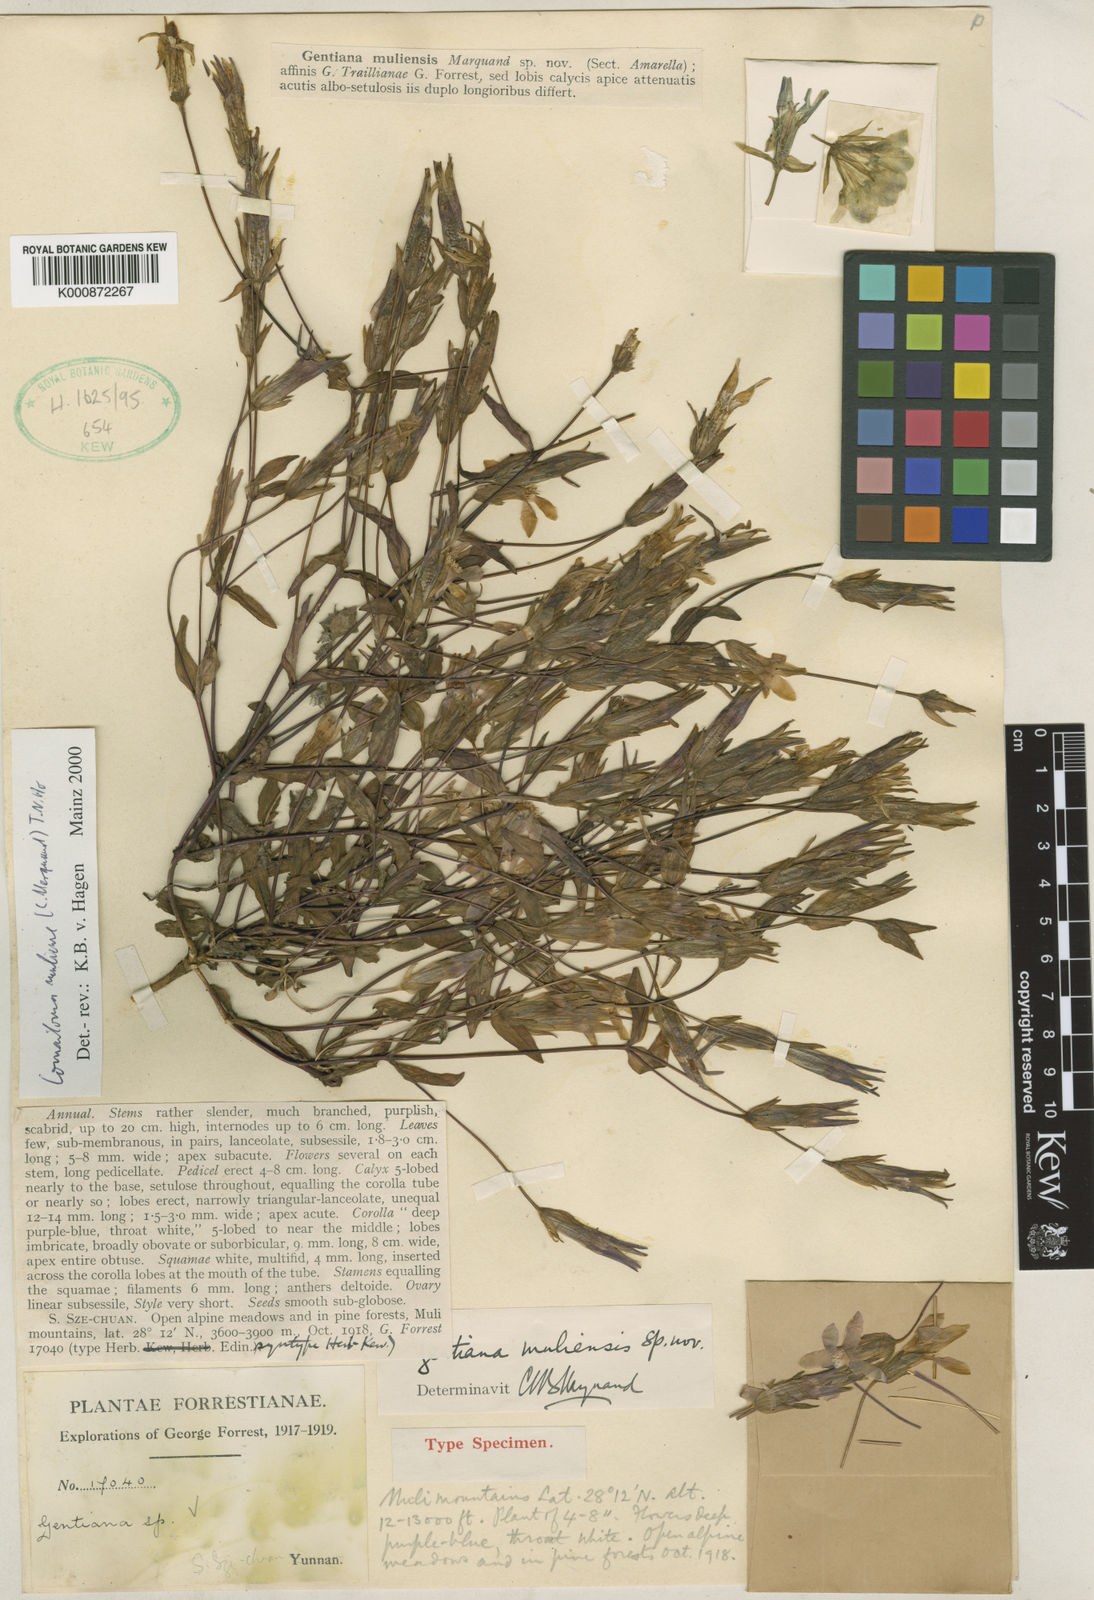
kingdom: Plantae
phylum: Tracheophyta
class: Magnoliopsida
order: Gentianales
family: Gentianaceae
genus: Comastoma
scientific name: Comastoma muliense
